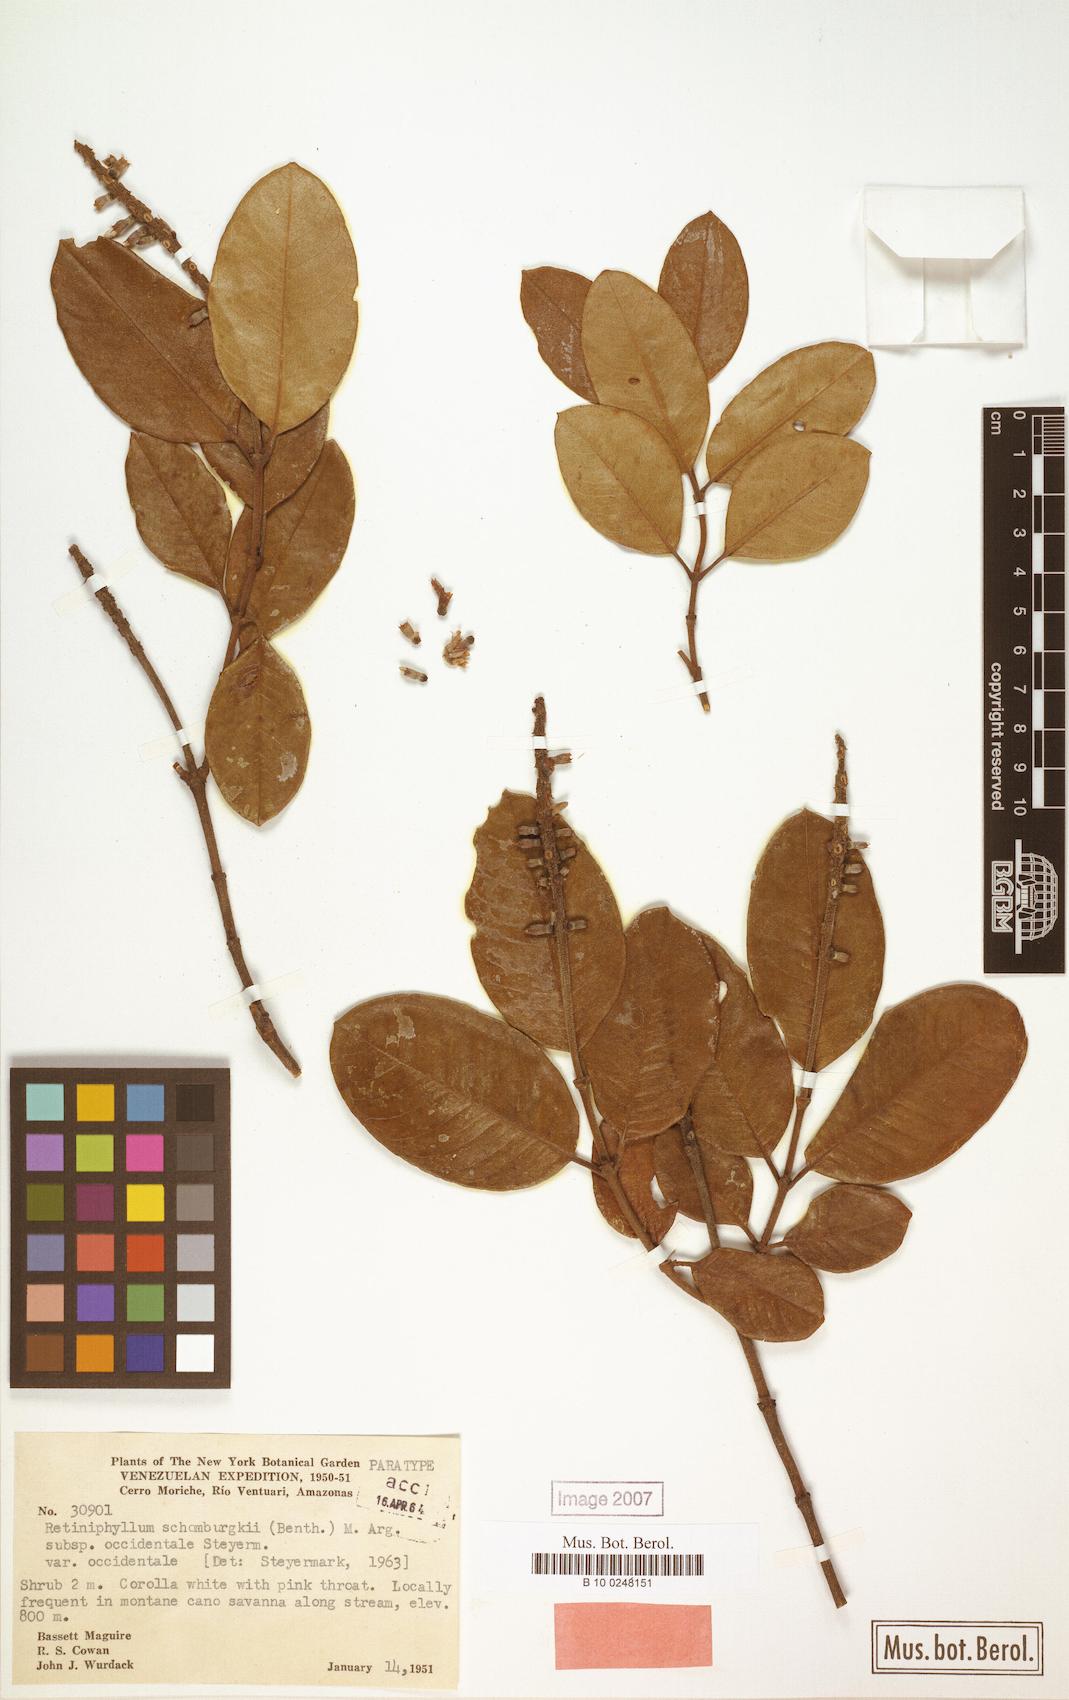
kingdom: Plantae
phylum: Tracheophyta
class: Magnoliopsida
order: Gentianales
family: Rubiaceae
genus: Retiniphyllum
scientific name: Retiniphyllum schomburgkii
